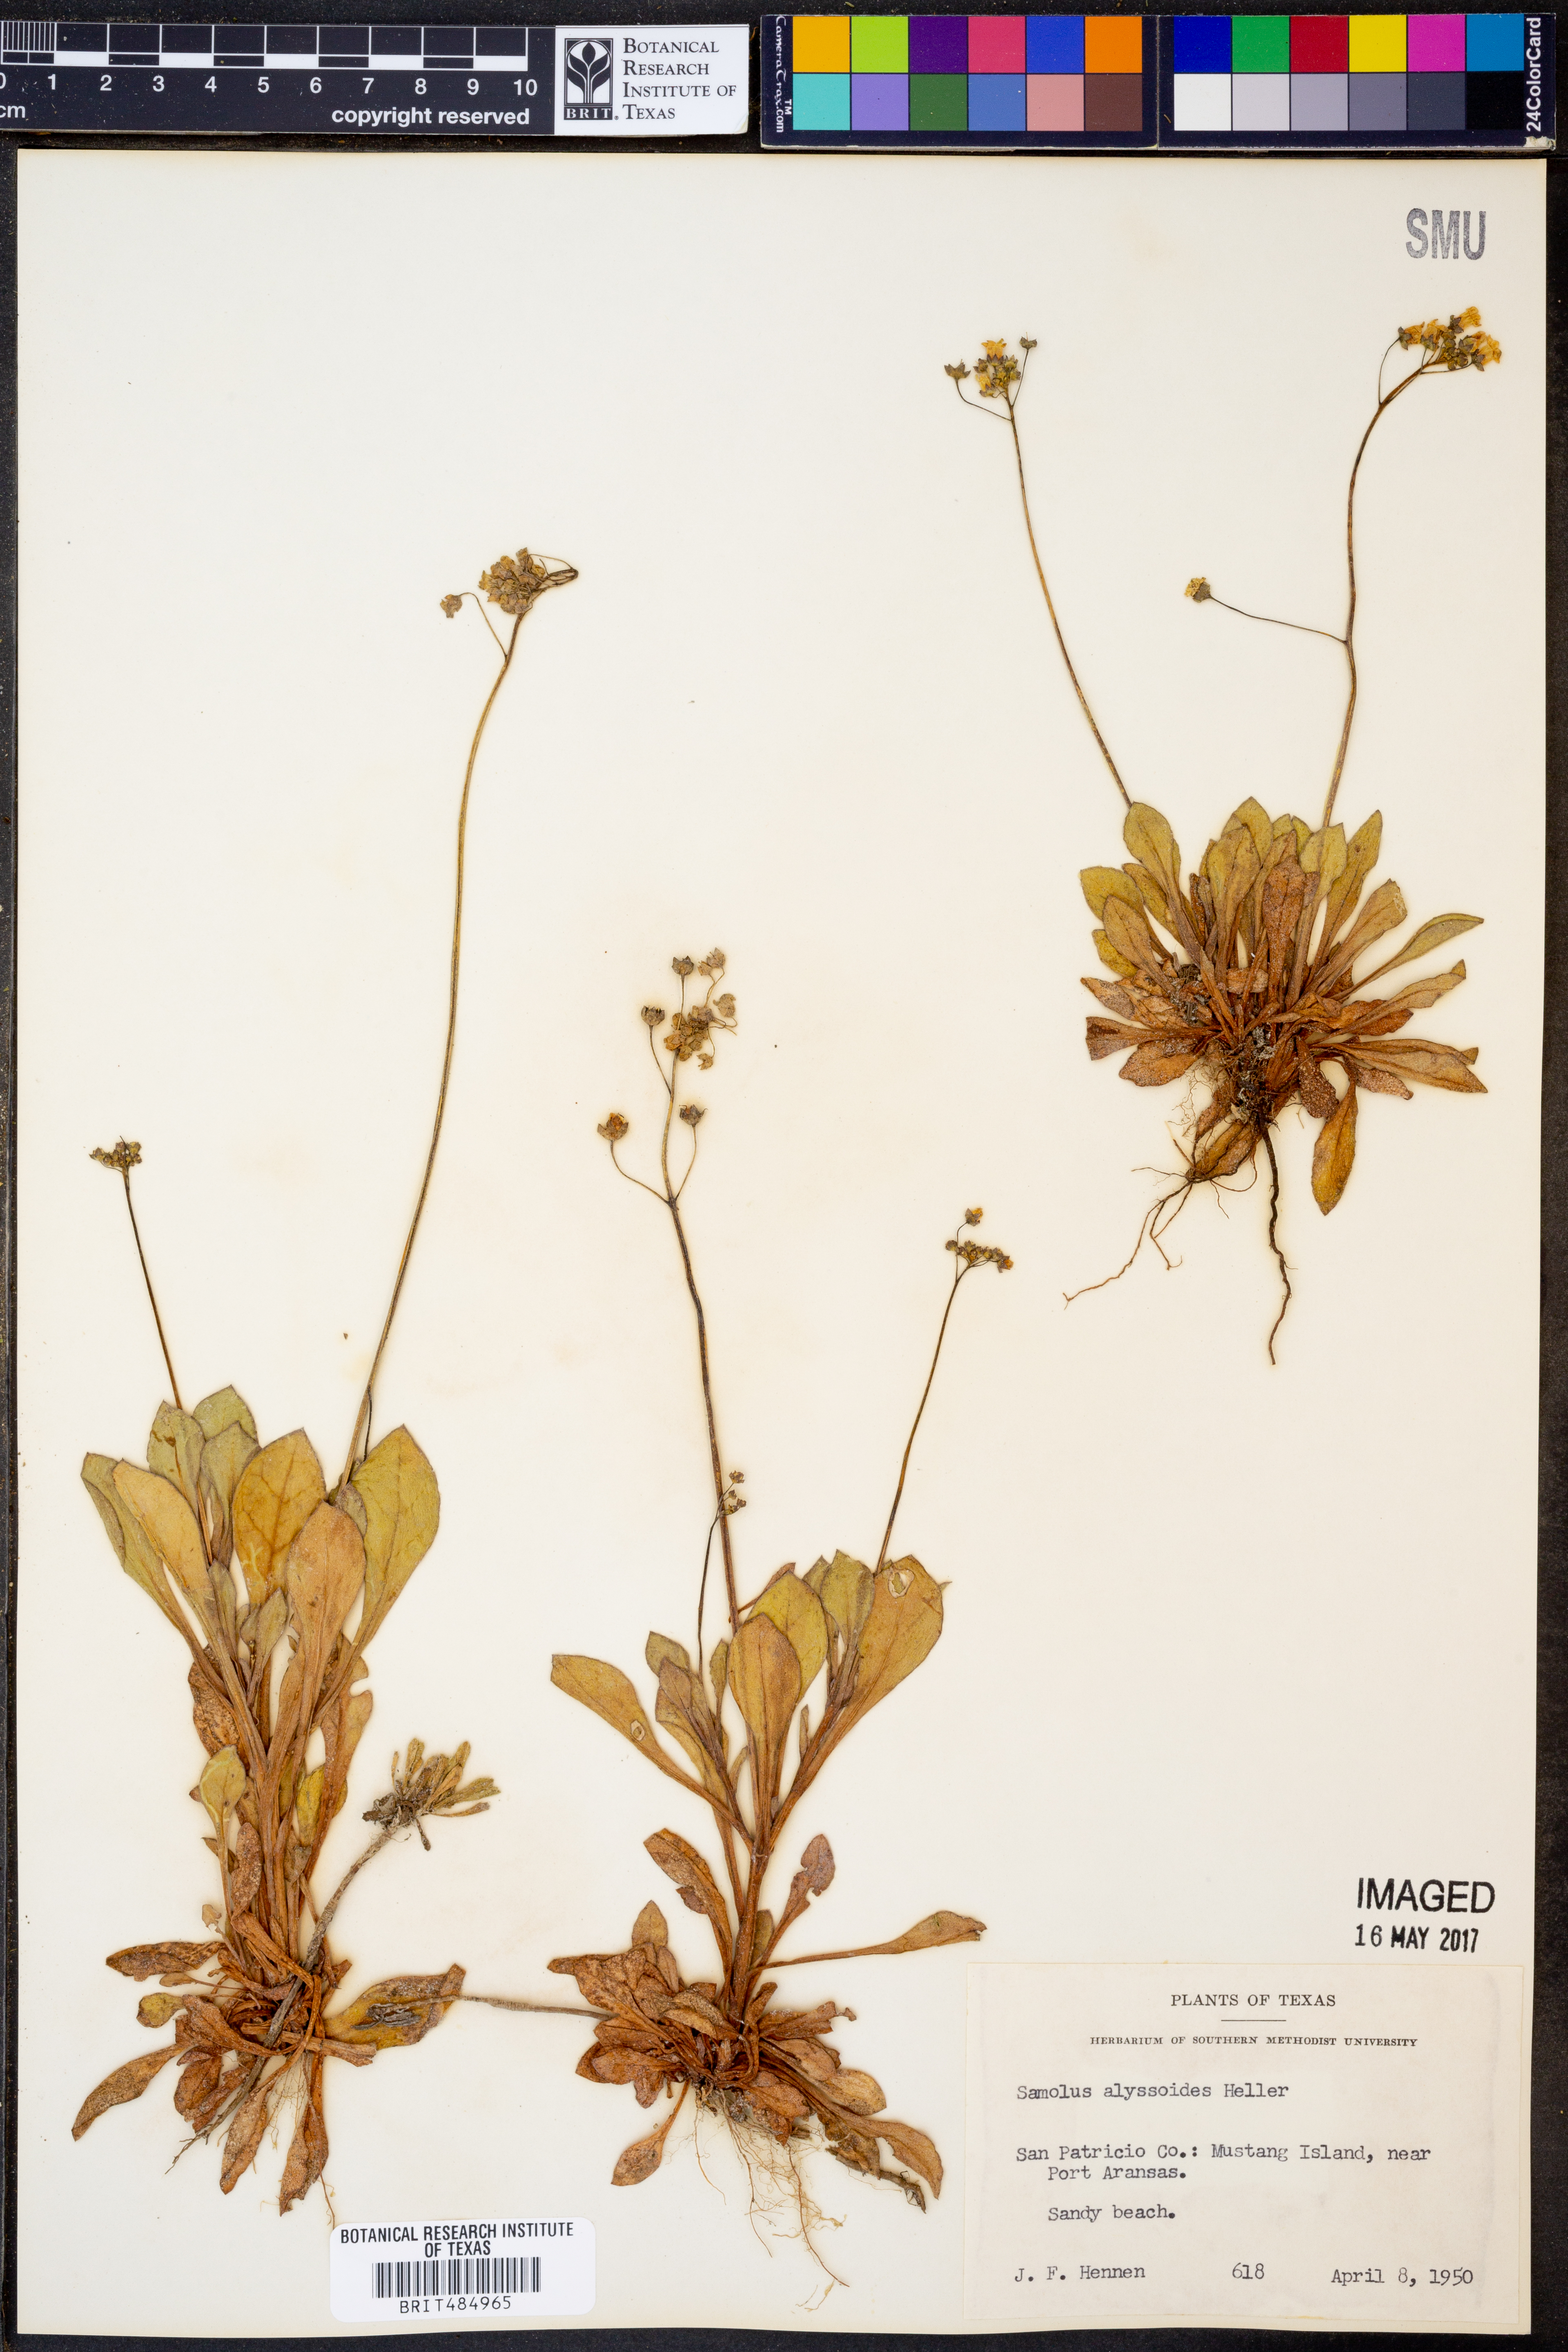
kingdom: Plantae
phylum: Tracheophyta
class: Magnoliopsida
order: Ericales
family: Primulaceae
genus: Samolus
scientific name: Samolus ebracteatus
